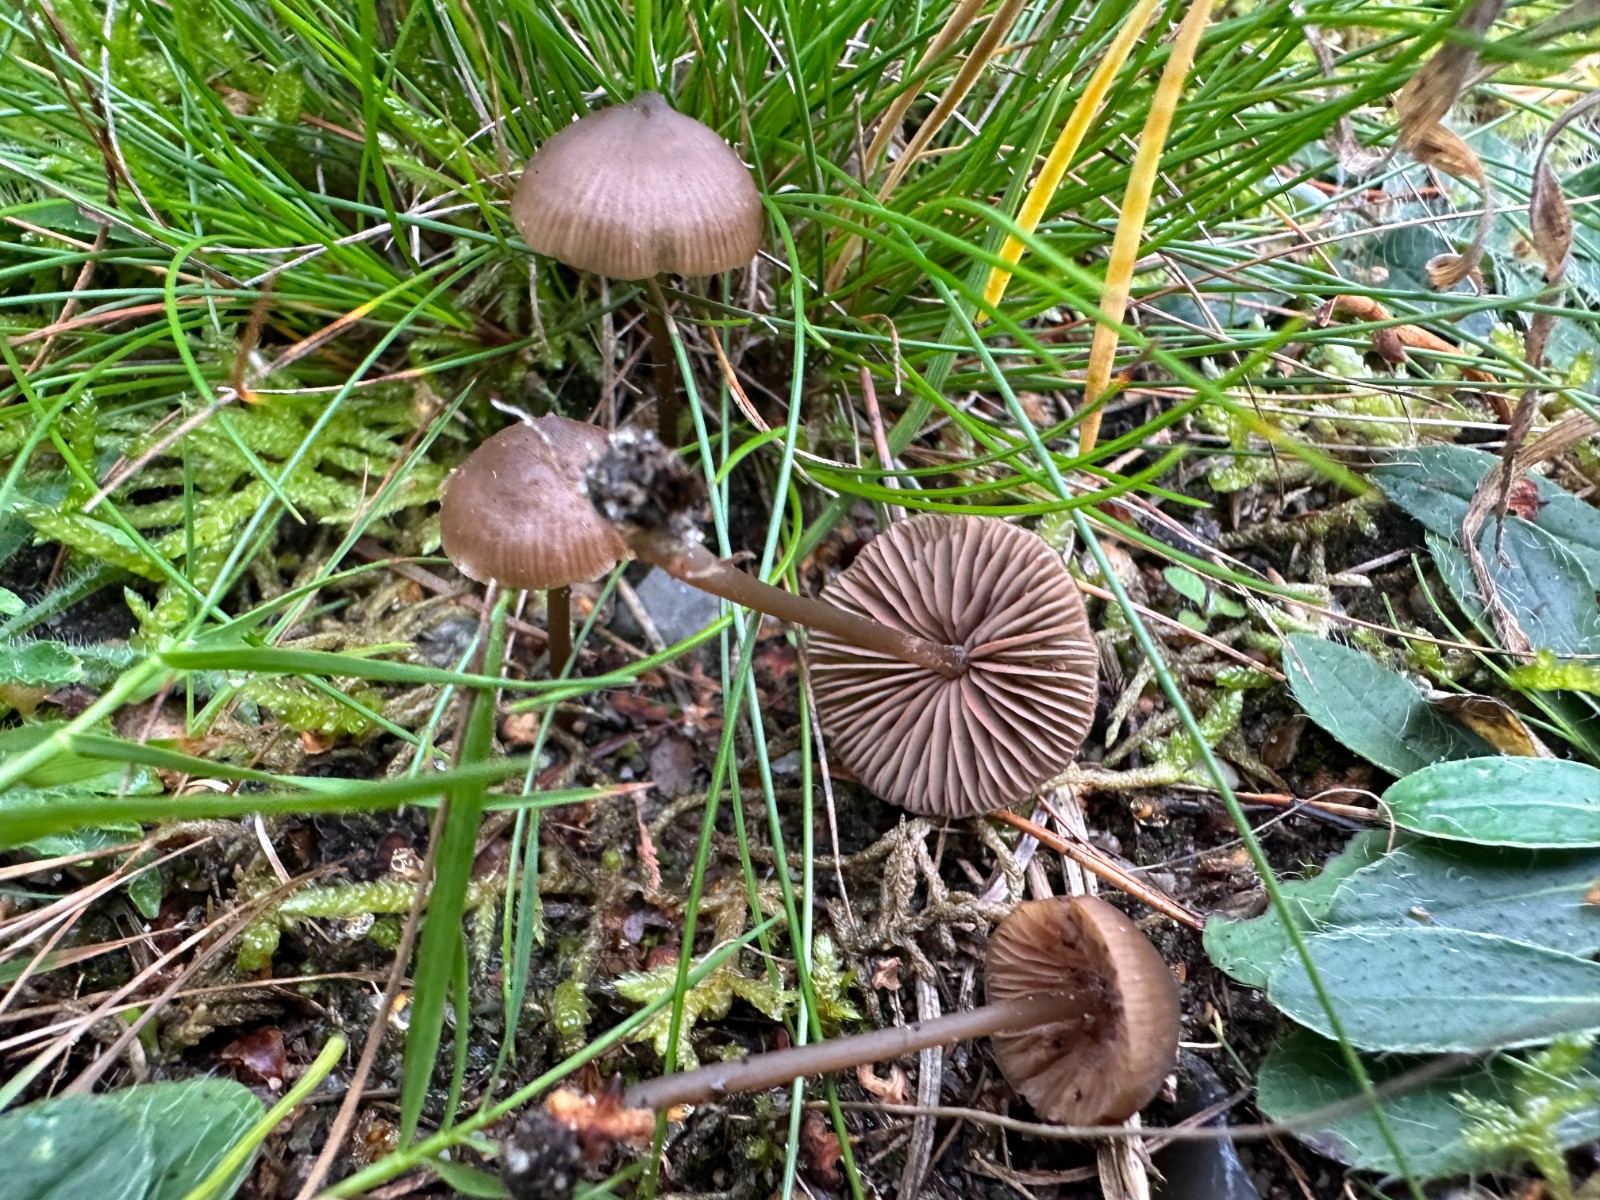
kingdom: Fungi
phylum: Basidiomycota
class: Agaricomycetes
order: Agaricales
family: Entolomataceae
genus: Entoloma
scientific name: Entoloma clandestinum
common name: tykbladet rødblad
